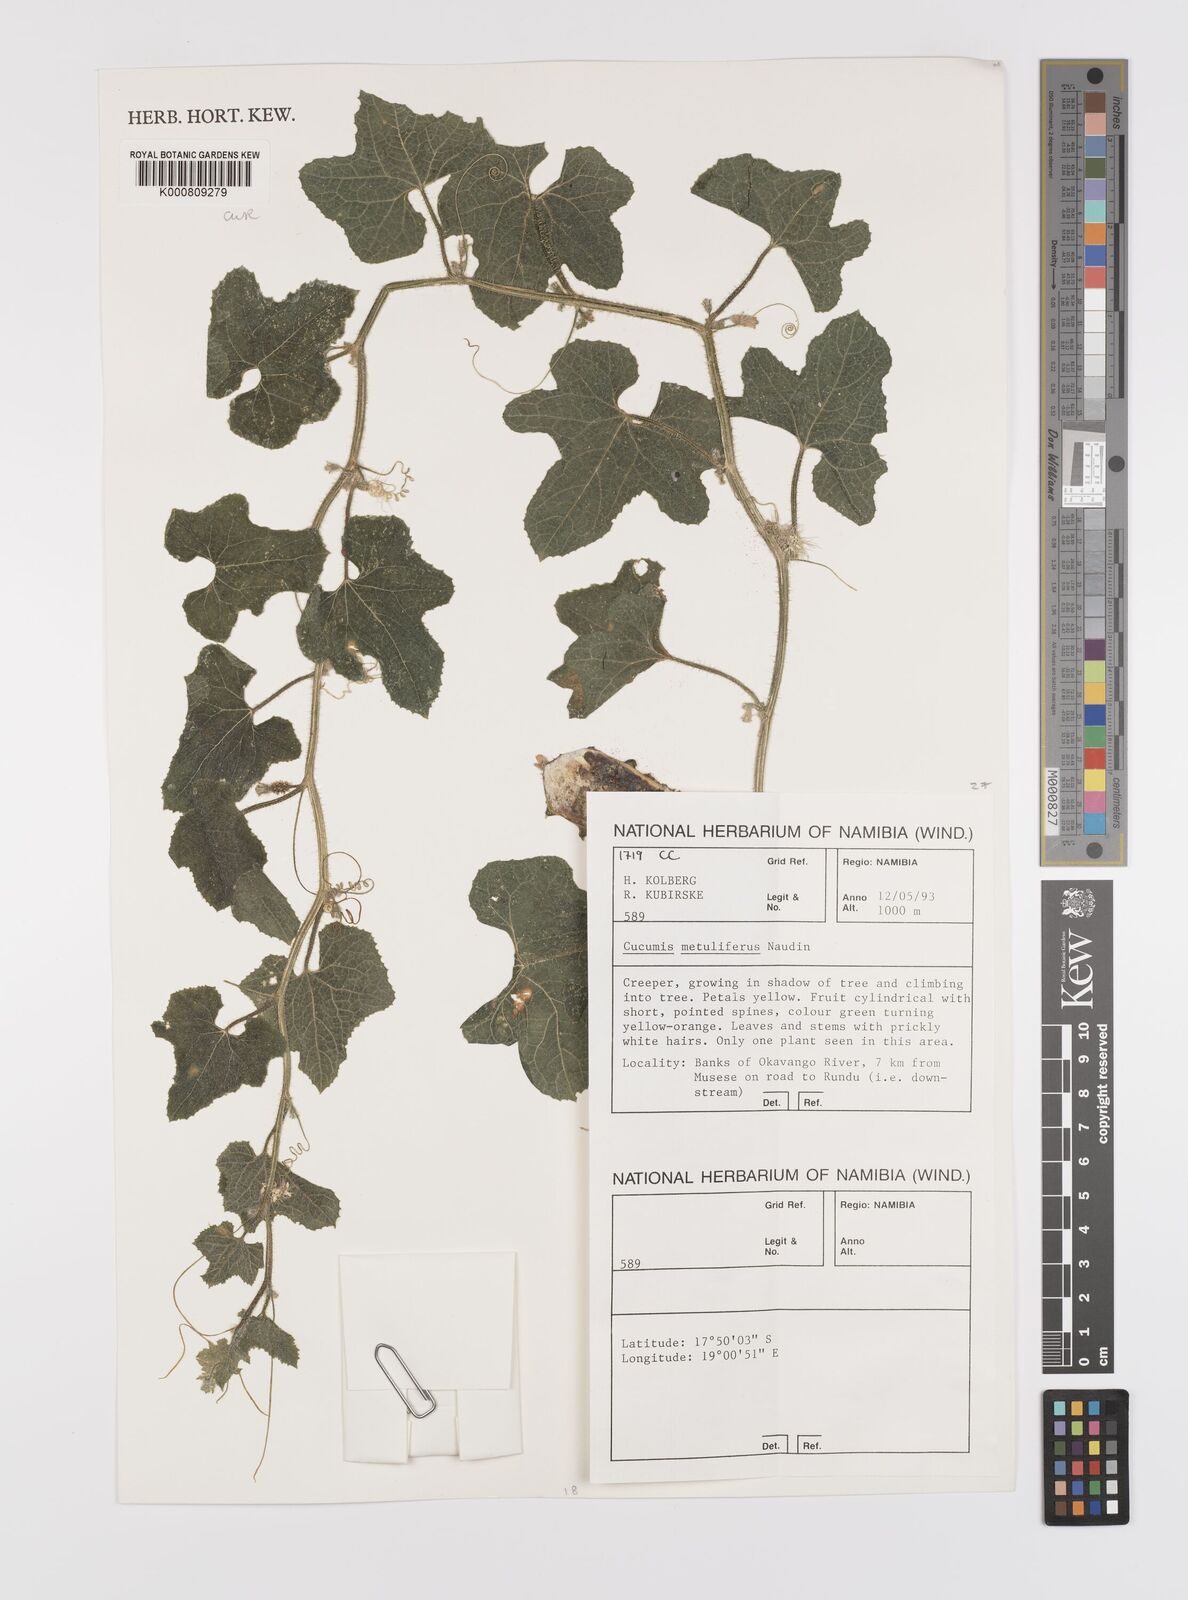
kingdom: Plantae
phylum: Tracheophyta
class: Magnoliopsida
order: Cucurbitales
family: Cucurbitaceae
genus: Cucumis
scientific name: Cucumis
